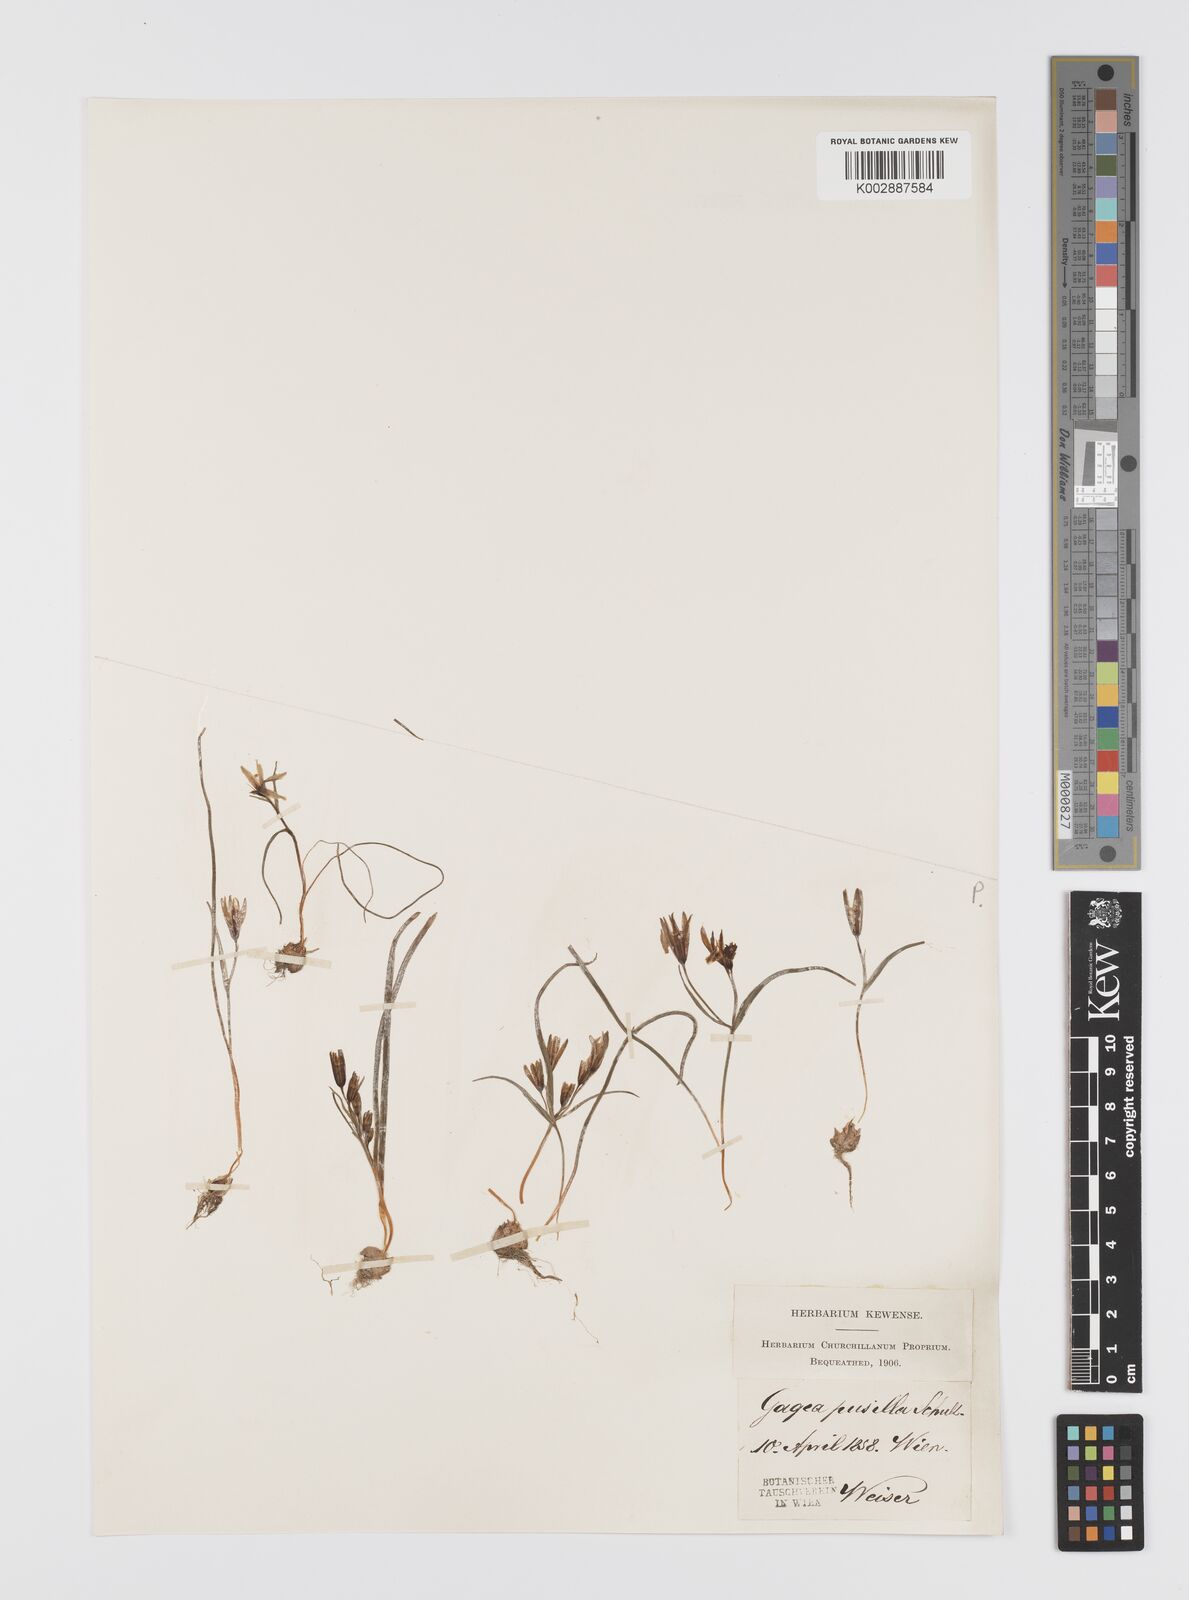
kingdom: Plantae
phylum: Tracheophyta
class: Liliopsida
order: Liliales
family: Liliaceae
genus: Gagea
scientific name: Gagea pusilla
